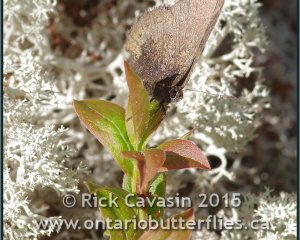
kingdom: Animalia
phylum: Arthropoda
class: Insecta
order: Lepidoptera
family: Lycaenidae
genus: Incisalia
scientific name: Incisalia irioides
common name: Brown Elfin
